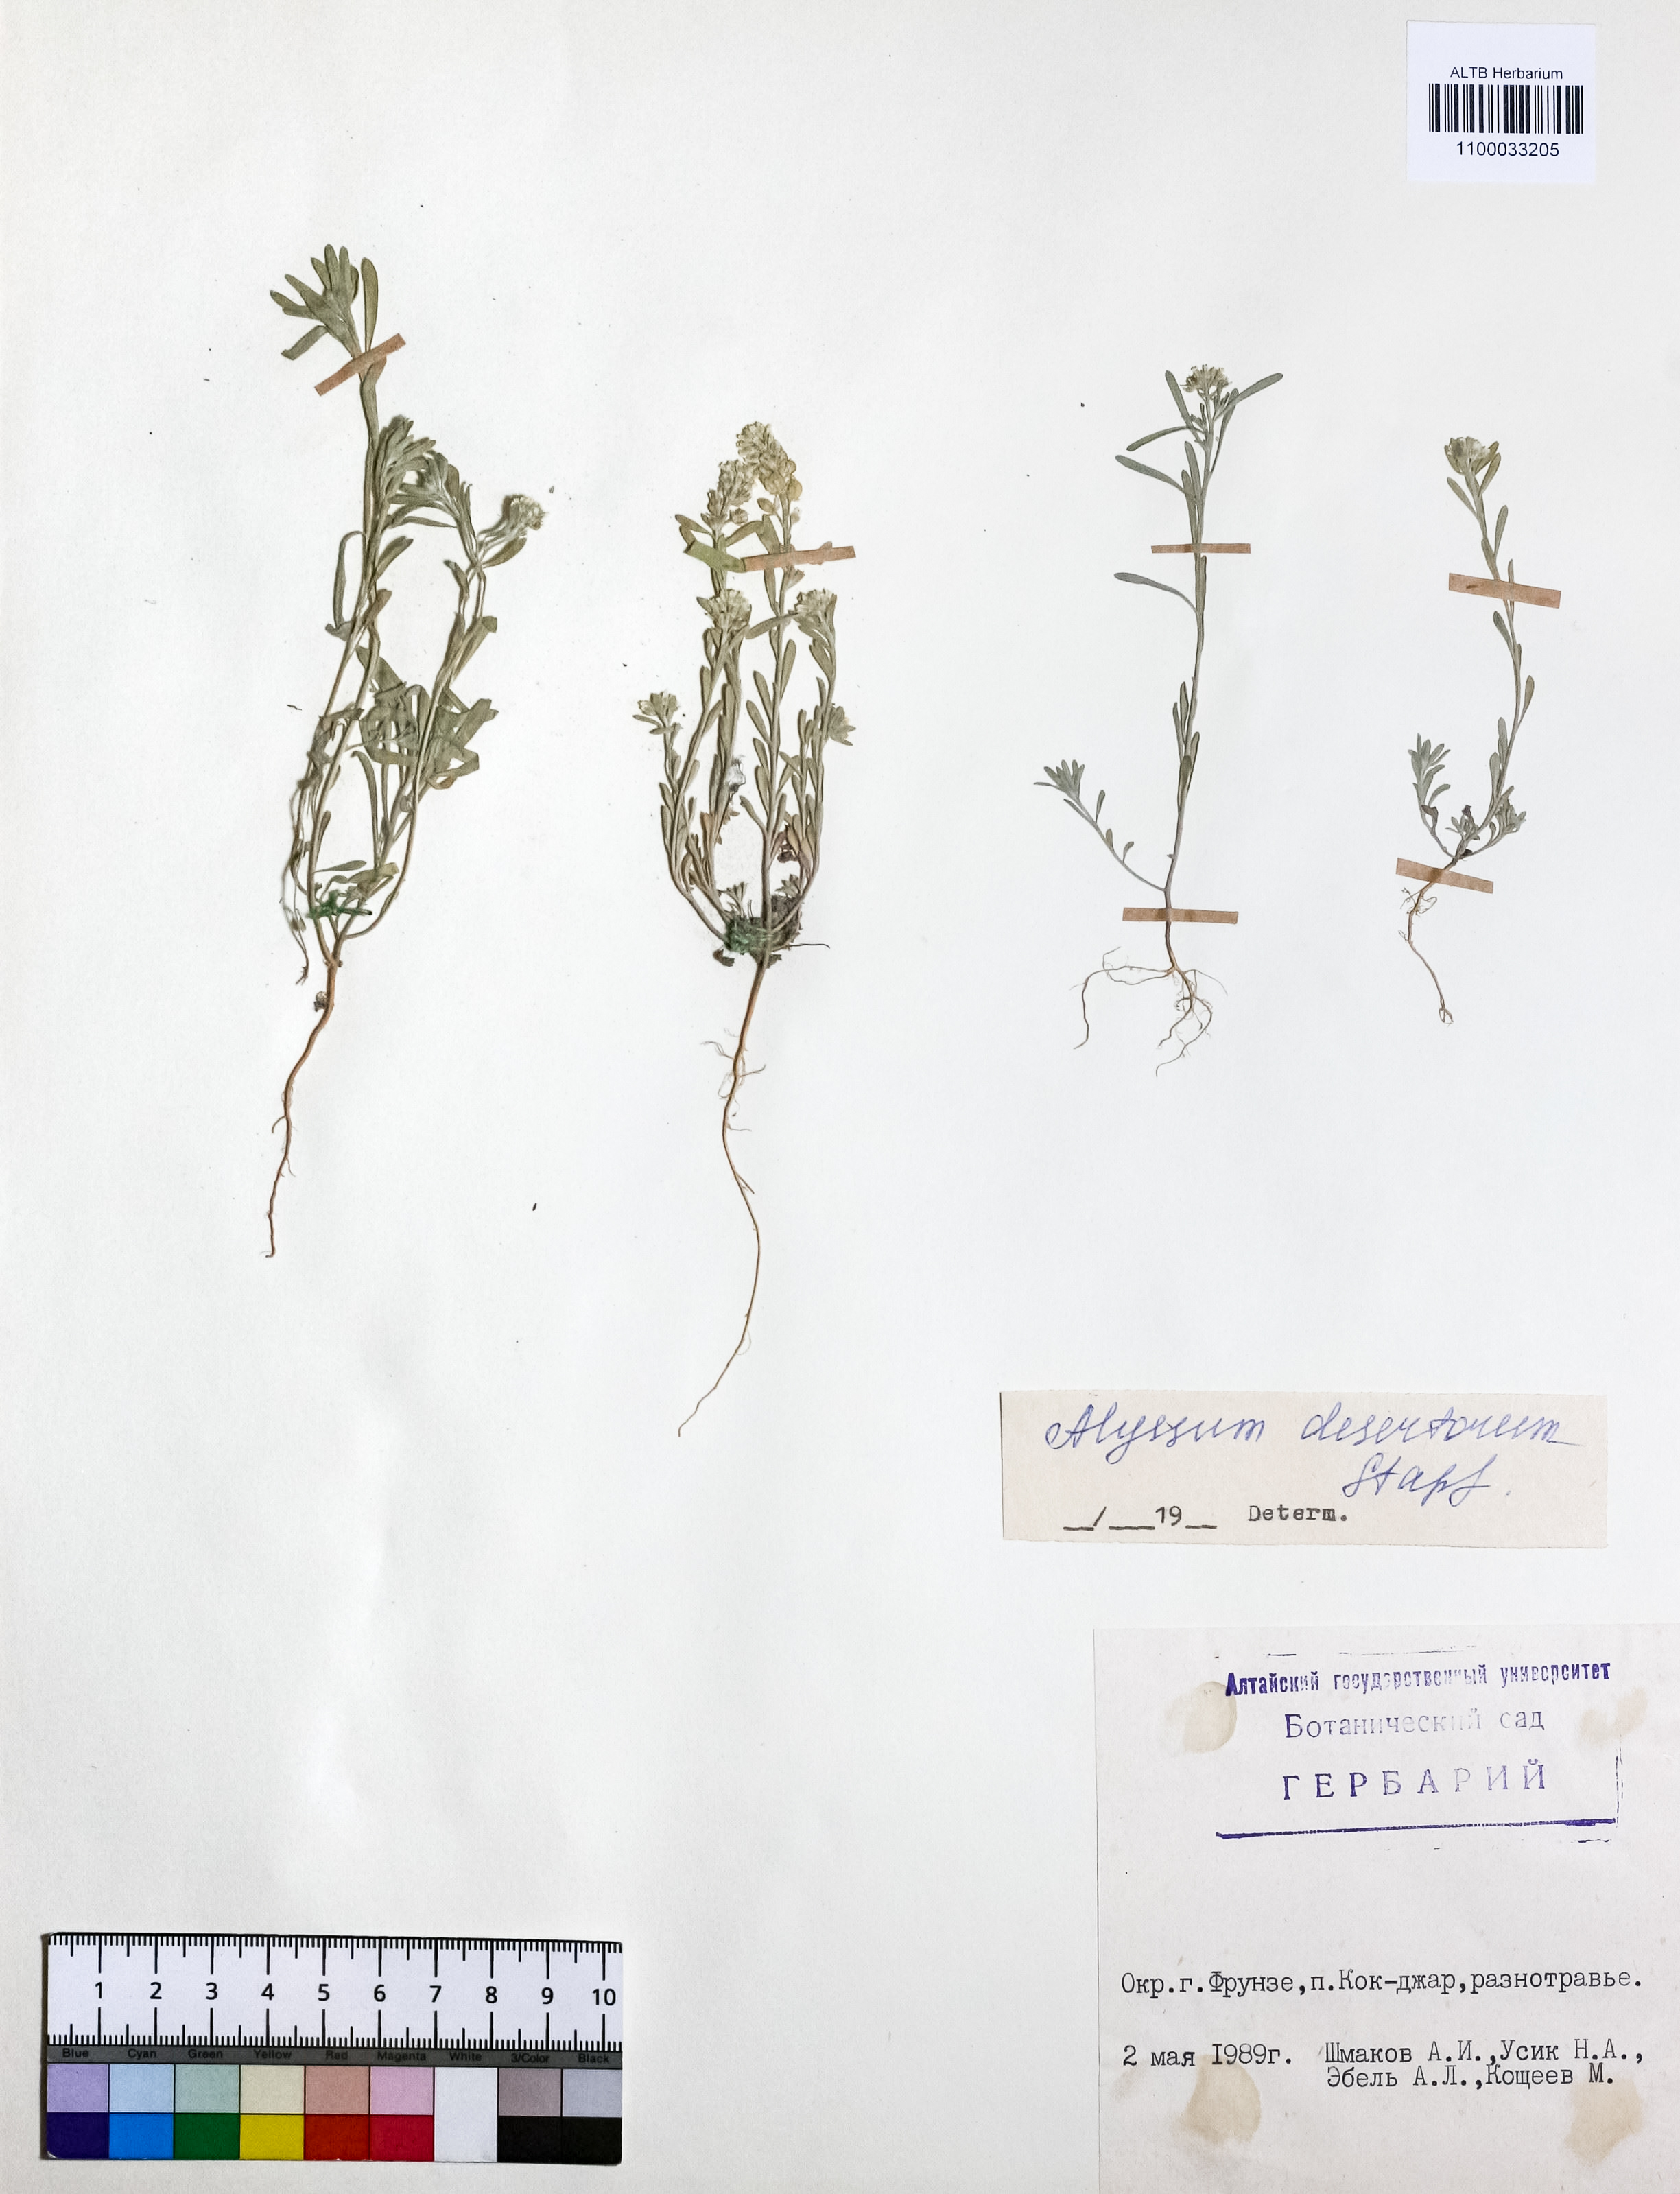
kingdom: Plantae
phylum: Tracheophyta
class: Magnoliopsida
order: Brassicales
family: Brassicaceae
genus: Alyssum
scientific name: Alyssum turkestanicum
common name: Desert alyssum
